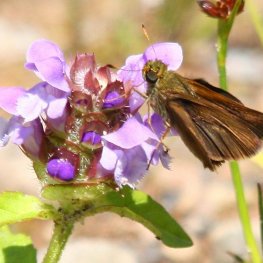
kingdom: Animalia
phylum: Arthropoda
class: Insecta
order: Lepidoptera
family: Hesperiidae
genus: Euphyes
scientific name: Euphyes vestris
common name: Dun Skipper
